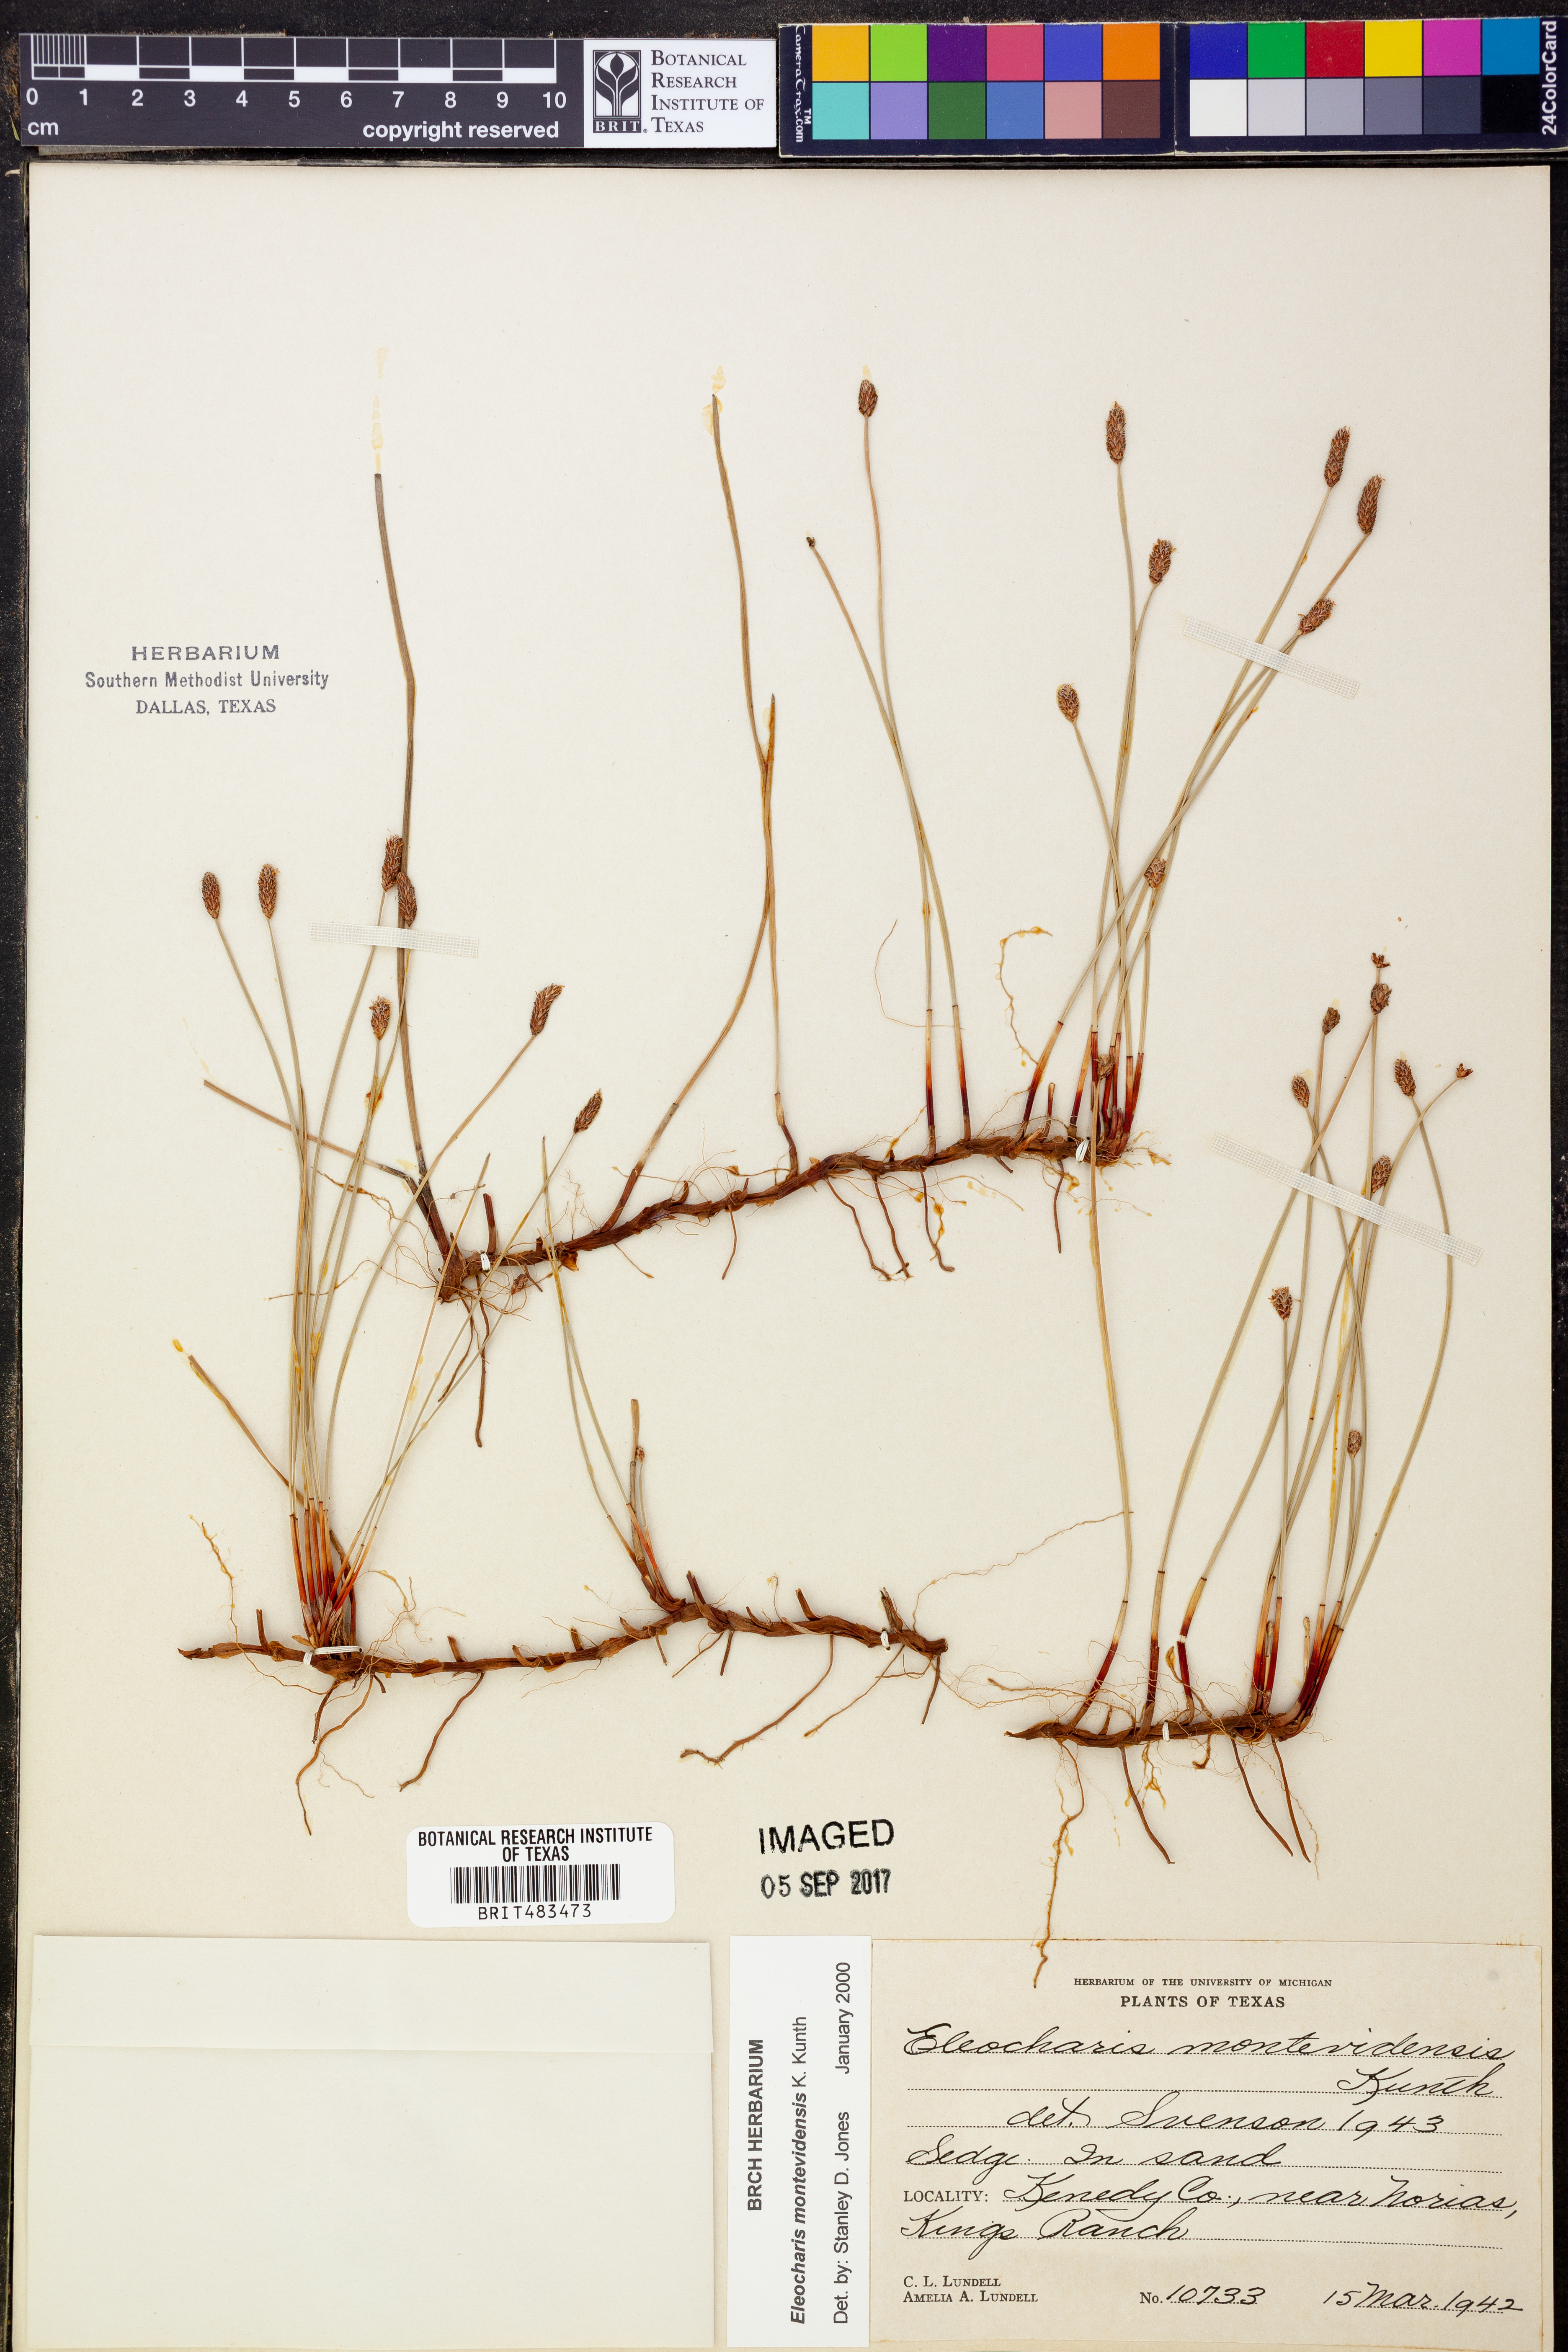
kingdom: Plantae
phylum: Tracheophyta
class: Liliopsida
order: Poales
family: Cyperaceae
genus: Eleocharis
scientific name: Eleocharis montevidensis
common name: Sand spike-rush
